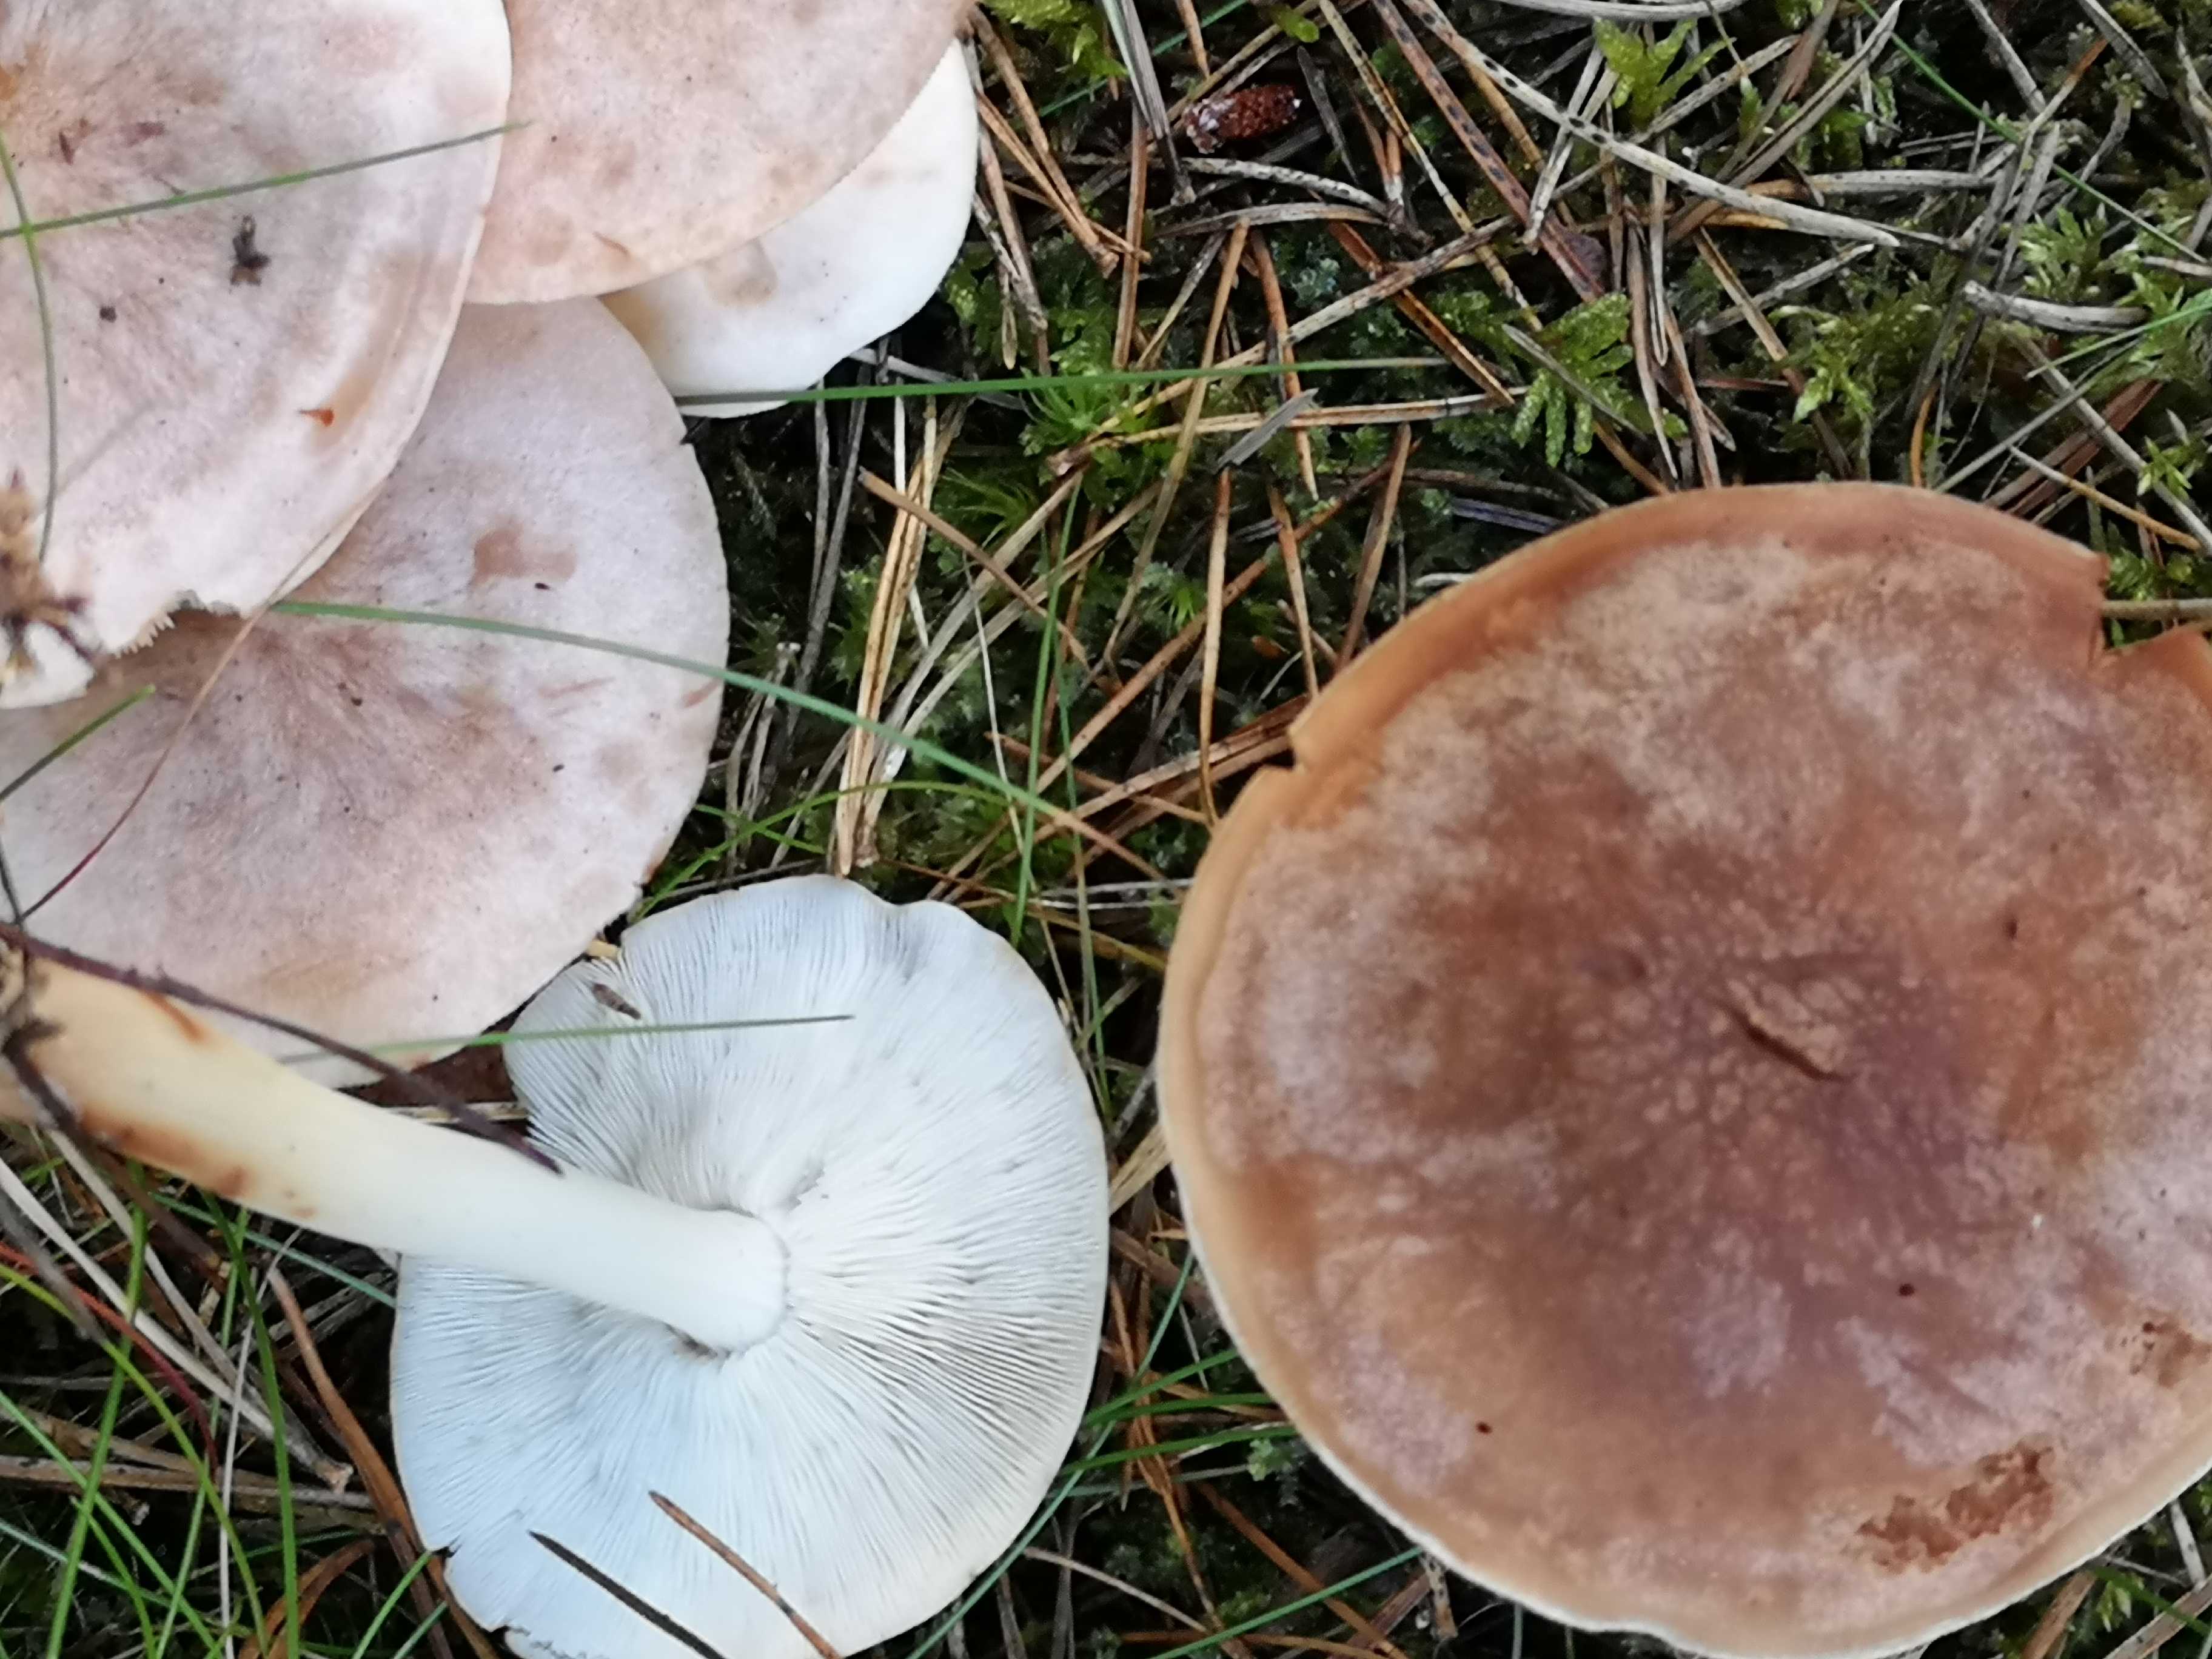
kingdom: Fungi
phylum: Basidiomycota
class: Agaricomycetes
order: Agaricales
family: Omphalotaceae
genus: Rhodocollybia
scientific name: Rhodocollybia maculata
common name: plettet fladhat
